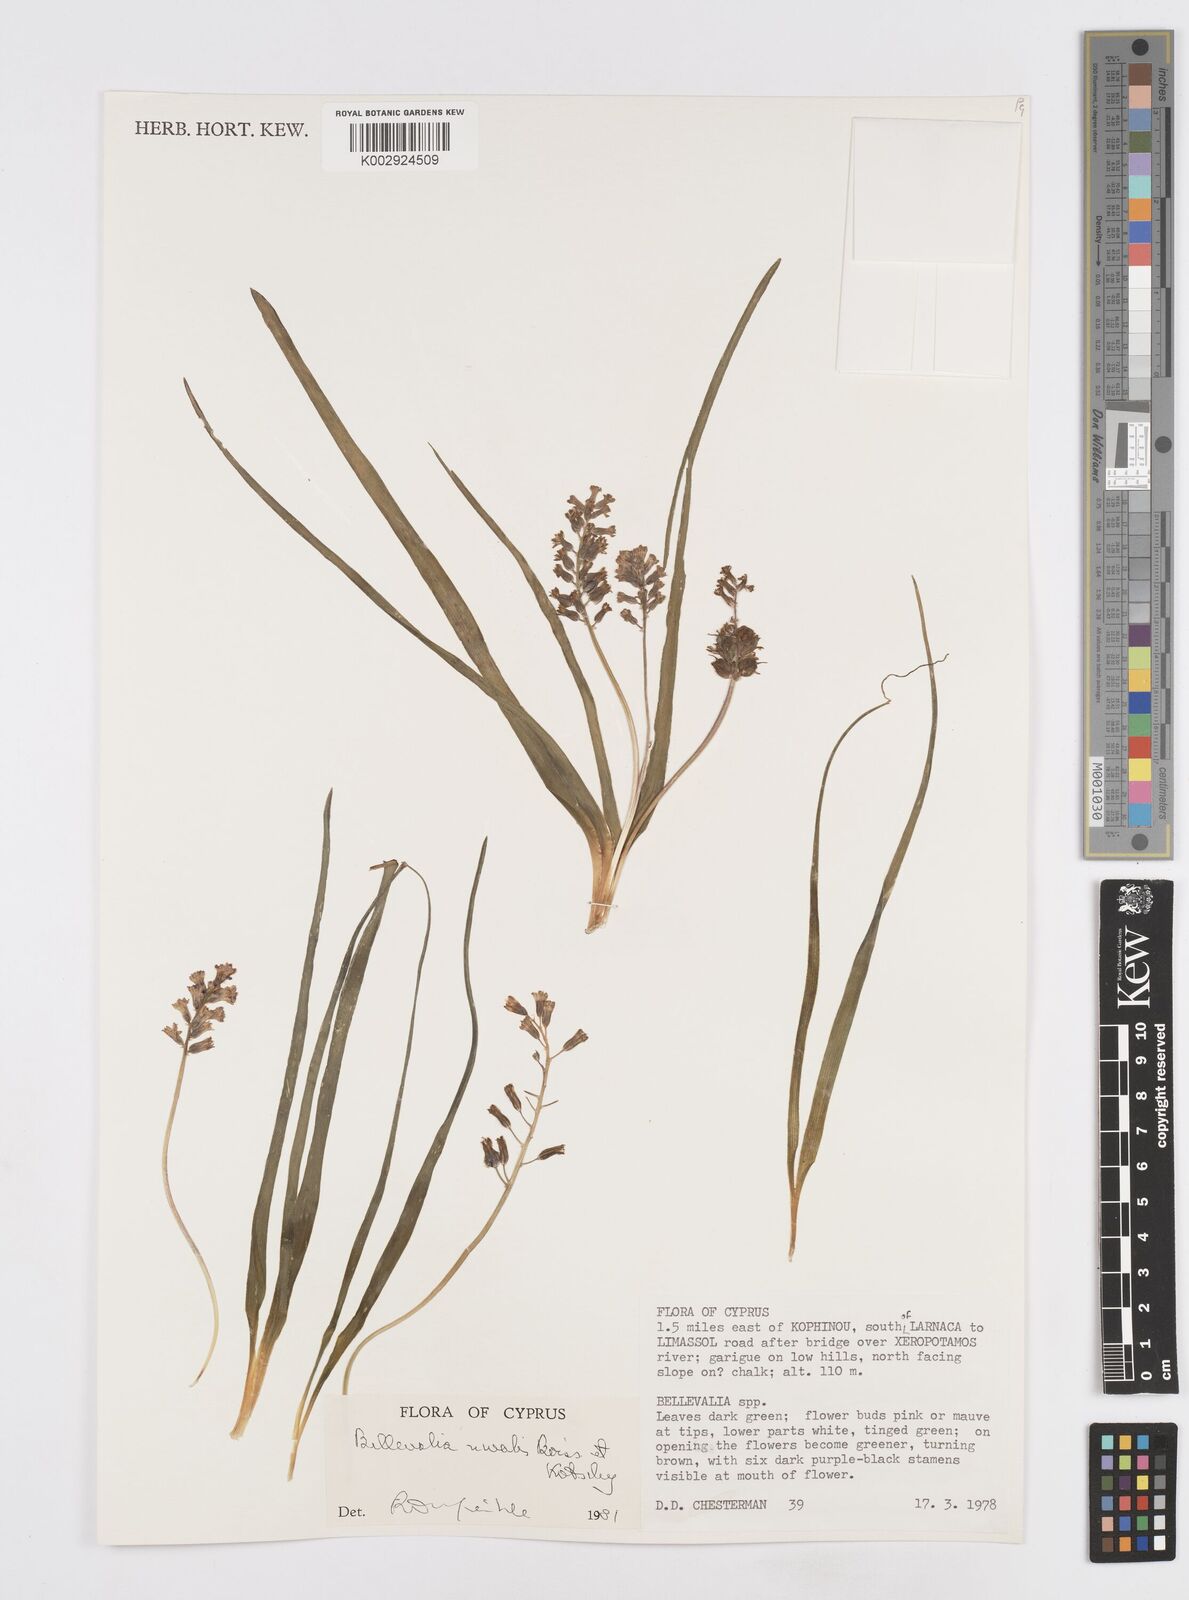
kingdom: Plantae
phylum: Tracheophyta
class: Liliopsida
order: Asparagales
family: Asparagaceae
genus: Bellevalia
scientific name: Bellevalia nivalis
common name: Snow bellevalia
